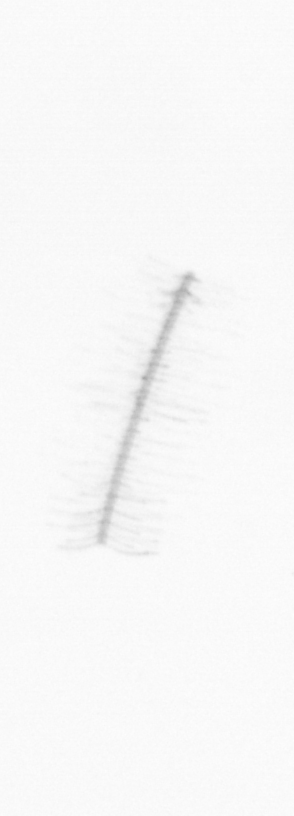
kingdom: Chromista
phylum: Ochrophyta
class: Bacillariophyceae
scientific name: Bacillariophyceae
